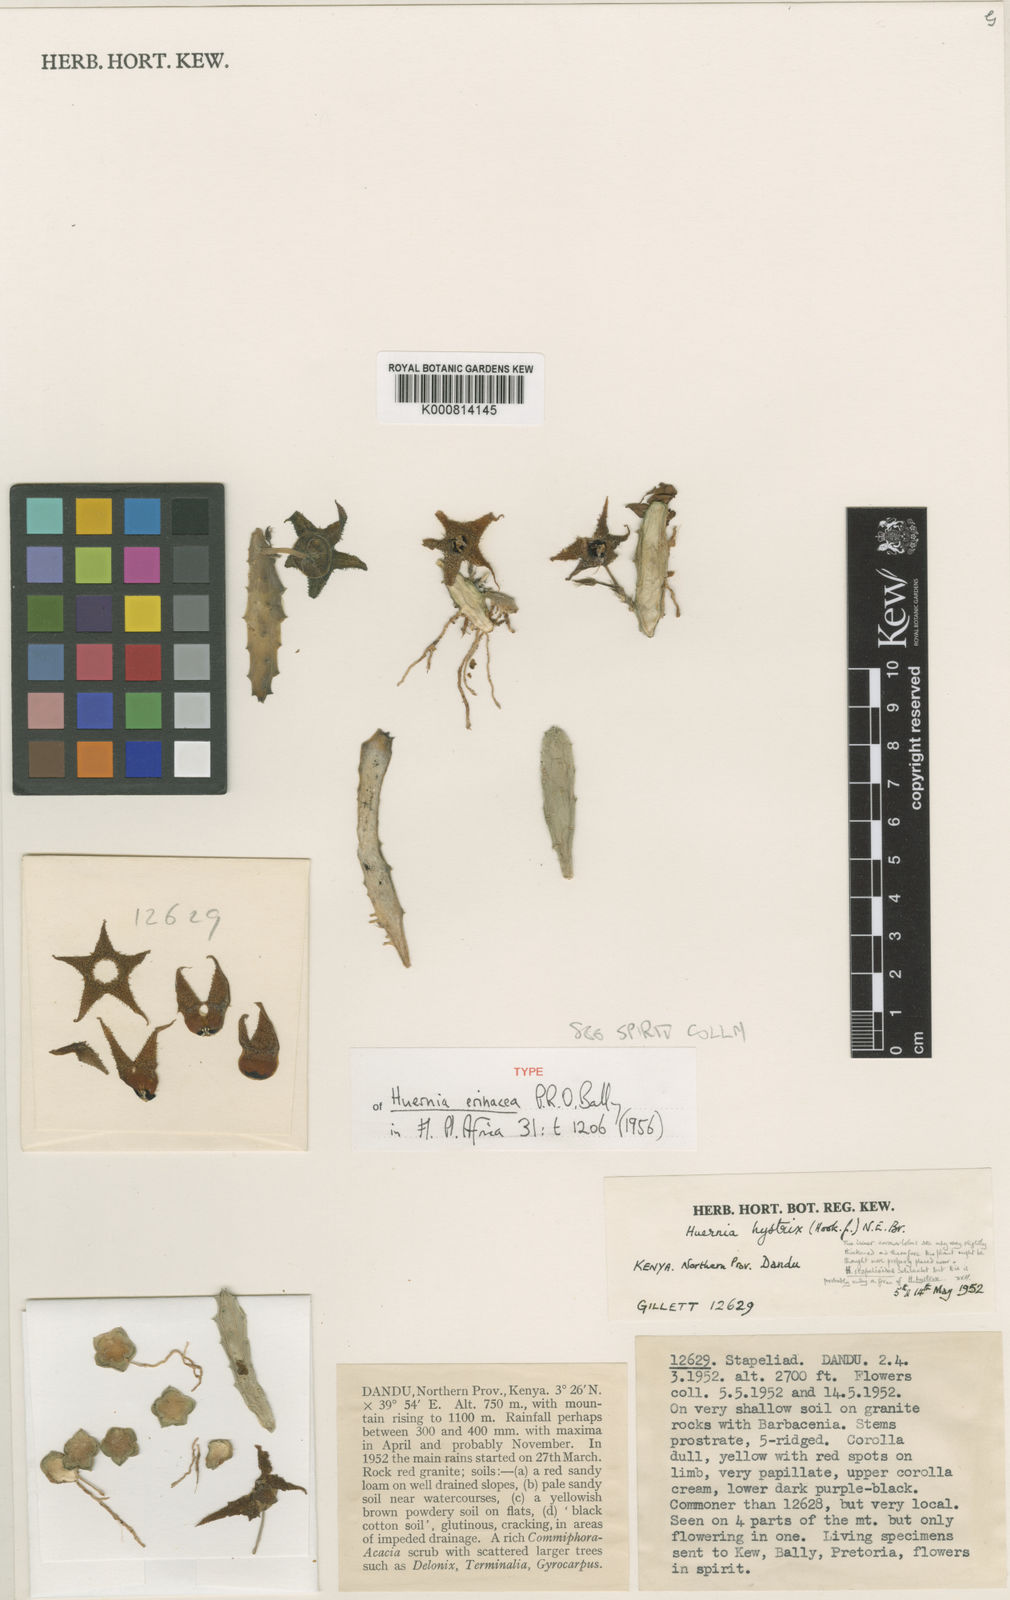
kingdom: Plantae
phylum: Tracheophyta
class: Magnoliopsida
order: Gentianales
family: Apocynaceae
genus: Ceropegia
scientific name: Ceropegia erinacea
